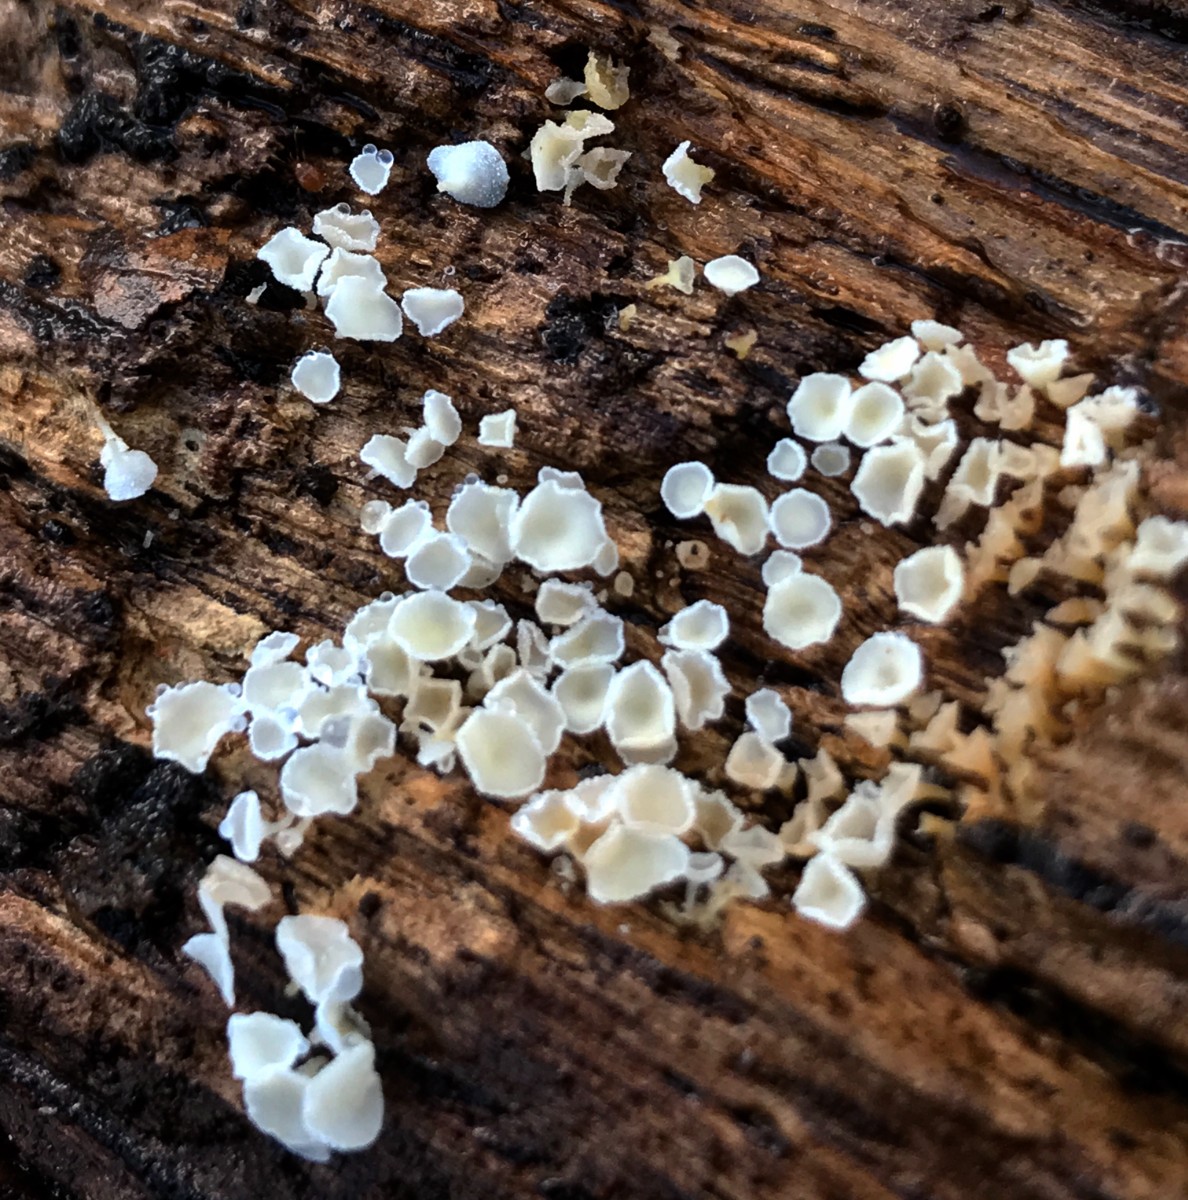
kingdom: Fungi
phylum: Ascomycota
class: Leotiomycetes
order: Helotiales
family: Lachnaceae
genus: Lachnum
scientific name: Lachnum
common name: frynseskive
